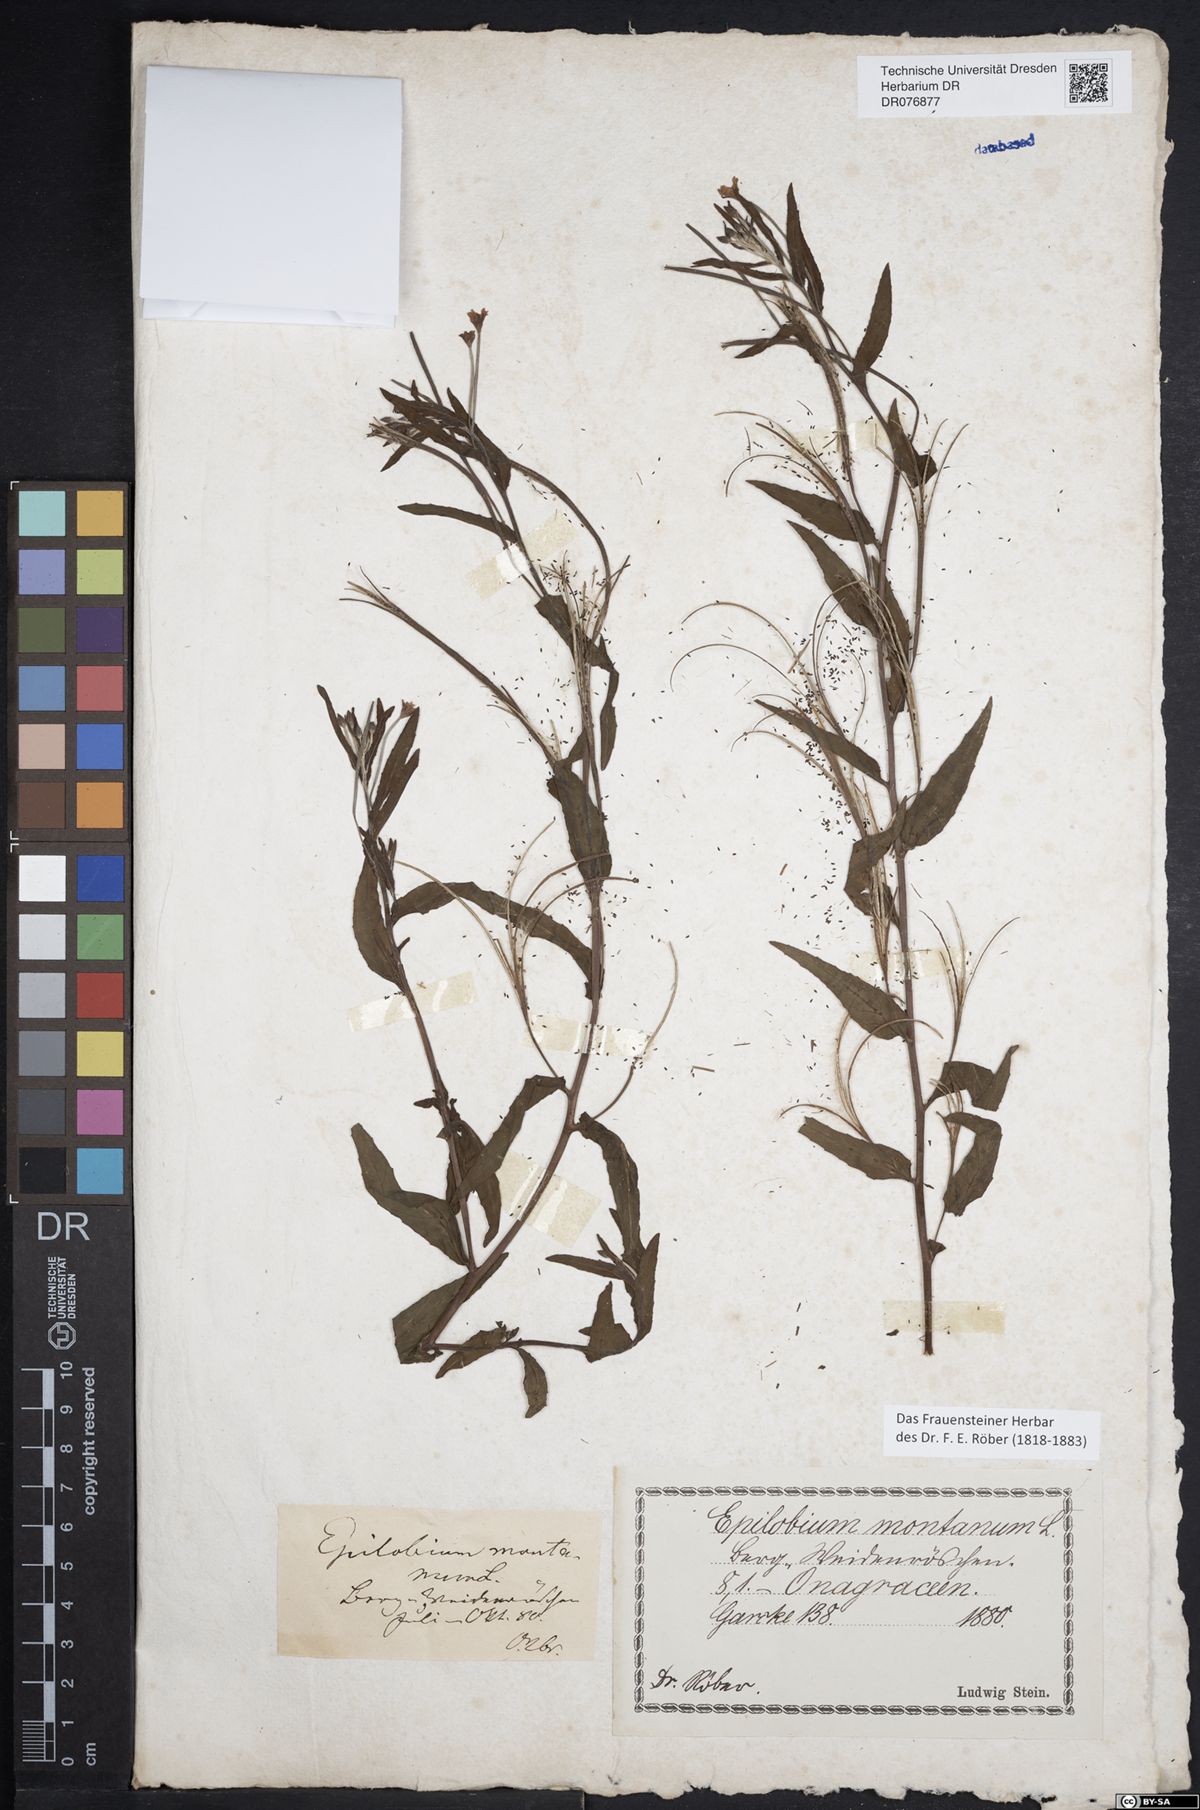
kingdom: Plantae
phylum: Tracheophyta
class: Magnoliopsida
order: Myrtales
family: Onagraceae
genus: Epilobium
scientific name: Epilobium montanum
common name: Broad-leaved willowherb
